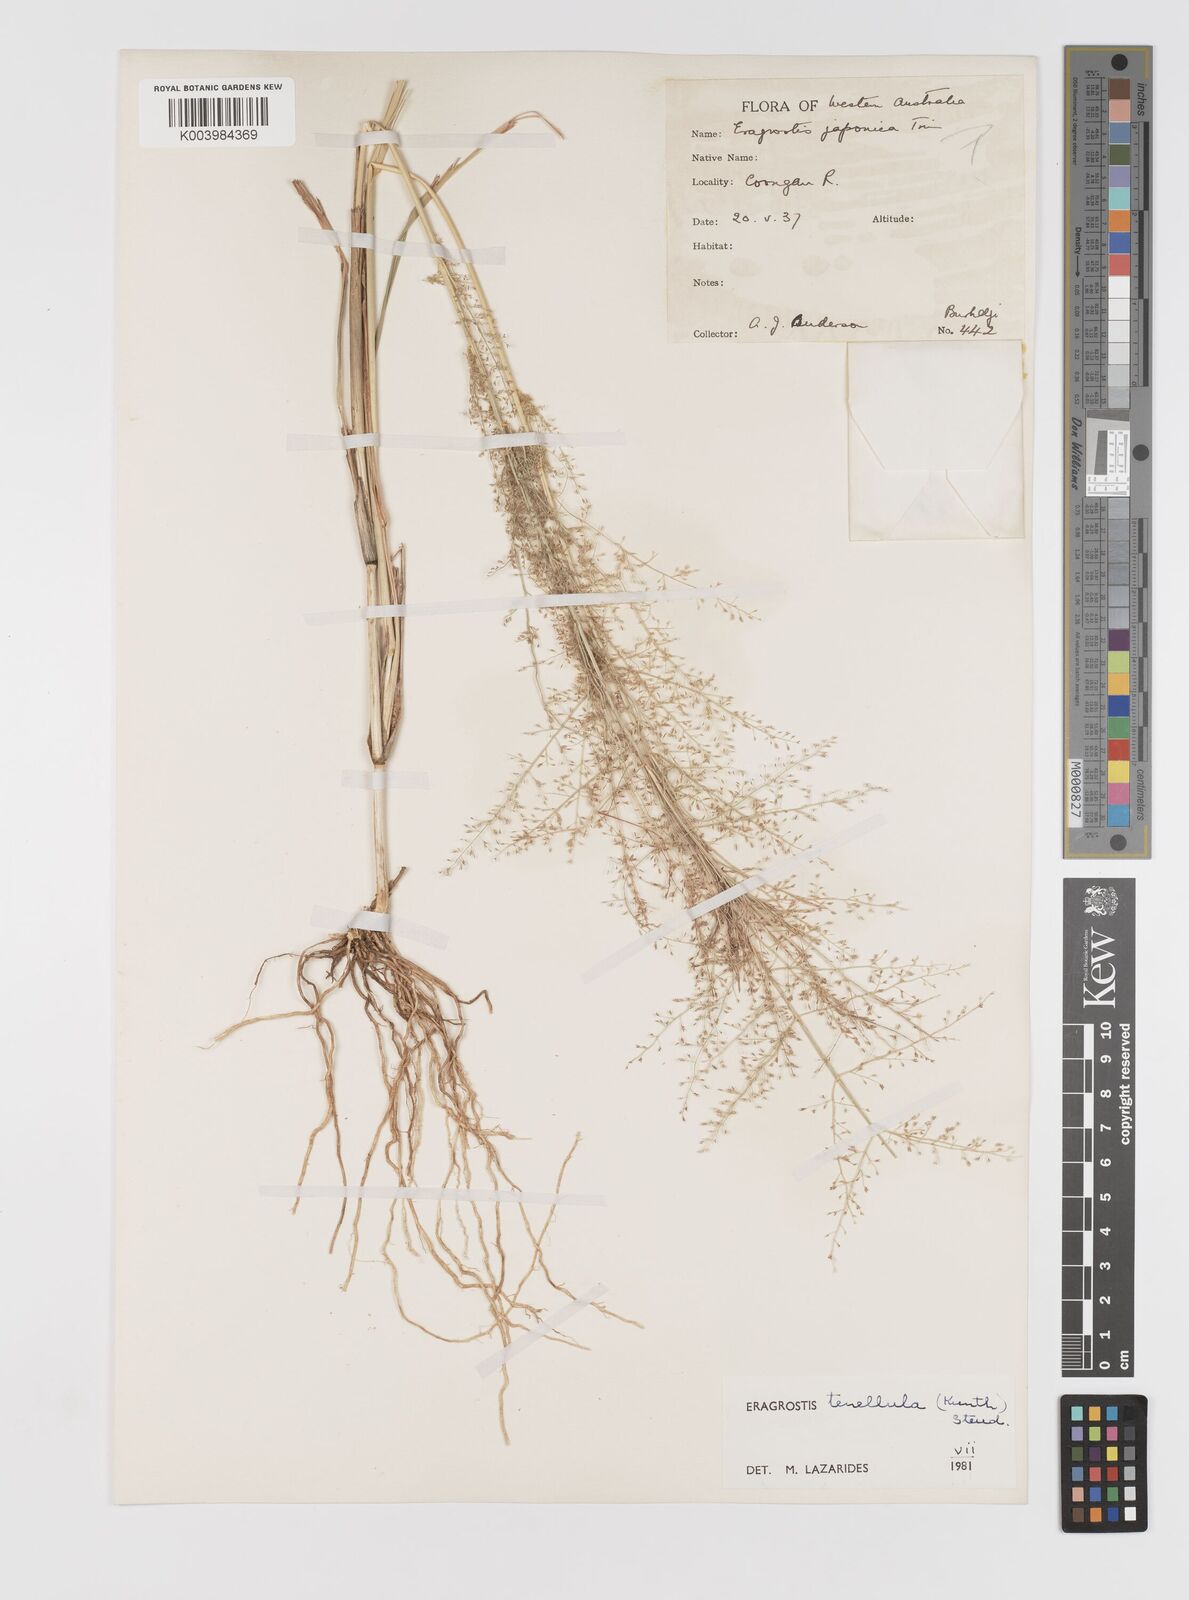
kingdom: Plantae
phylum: Tracheophyta
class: Liliopsida
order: Poales
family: Poaceae
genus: Eragrostis
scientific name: Eragrostis tenellula
